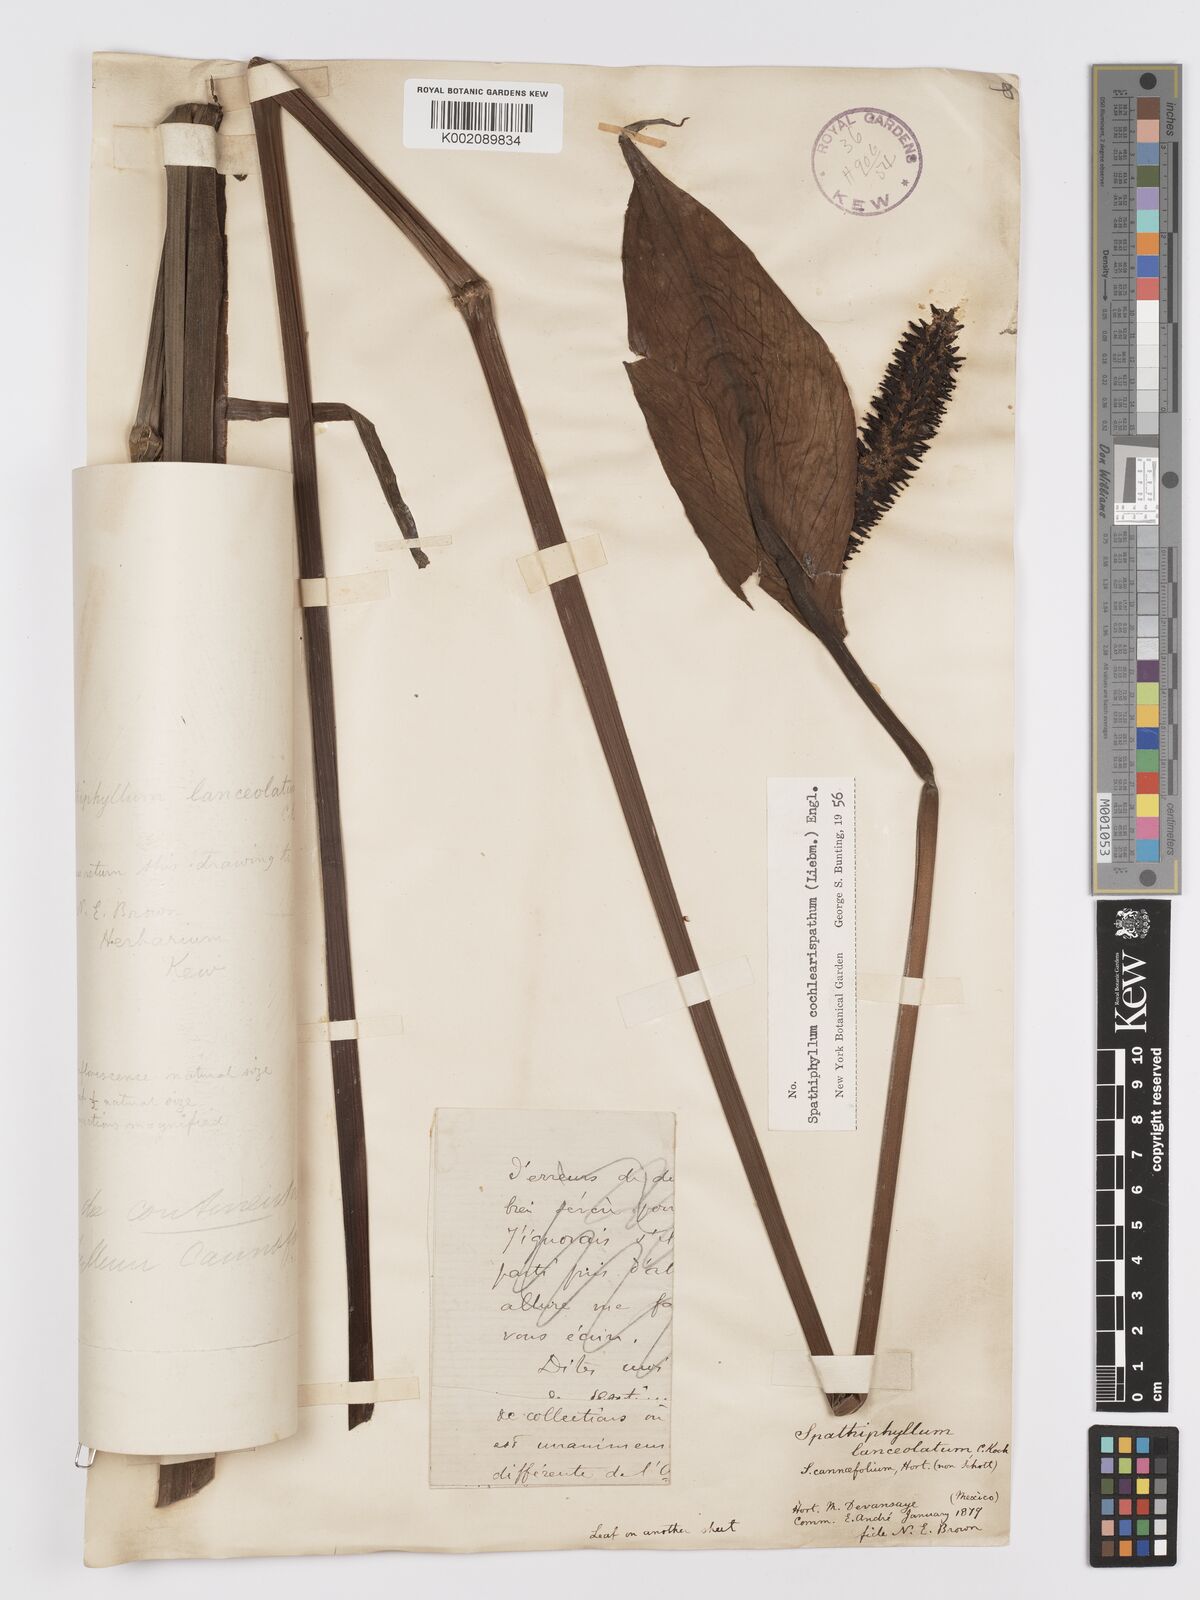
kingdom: Plantae
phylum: Tracheophyta
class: Liliopsida
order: Alismatales
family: Araceae
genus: Spathiphyllum
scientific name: Spathiphyllum cochlearispathum
